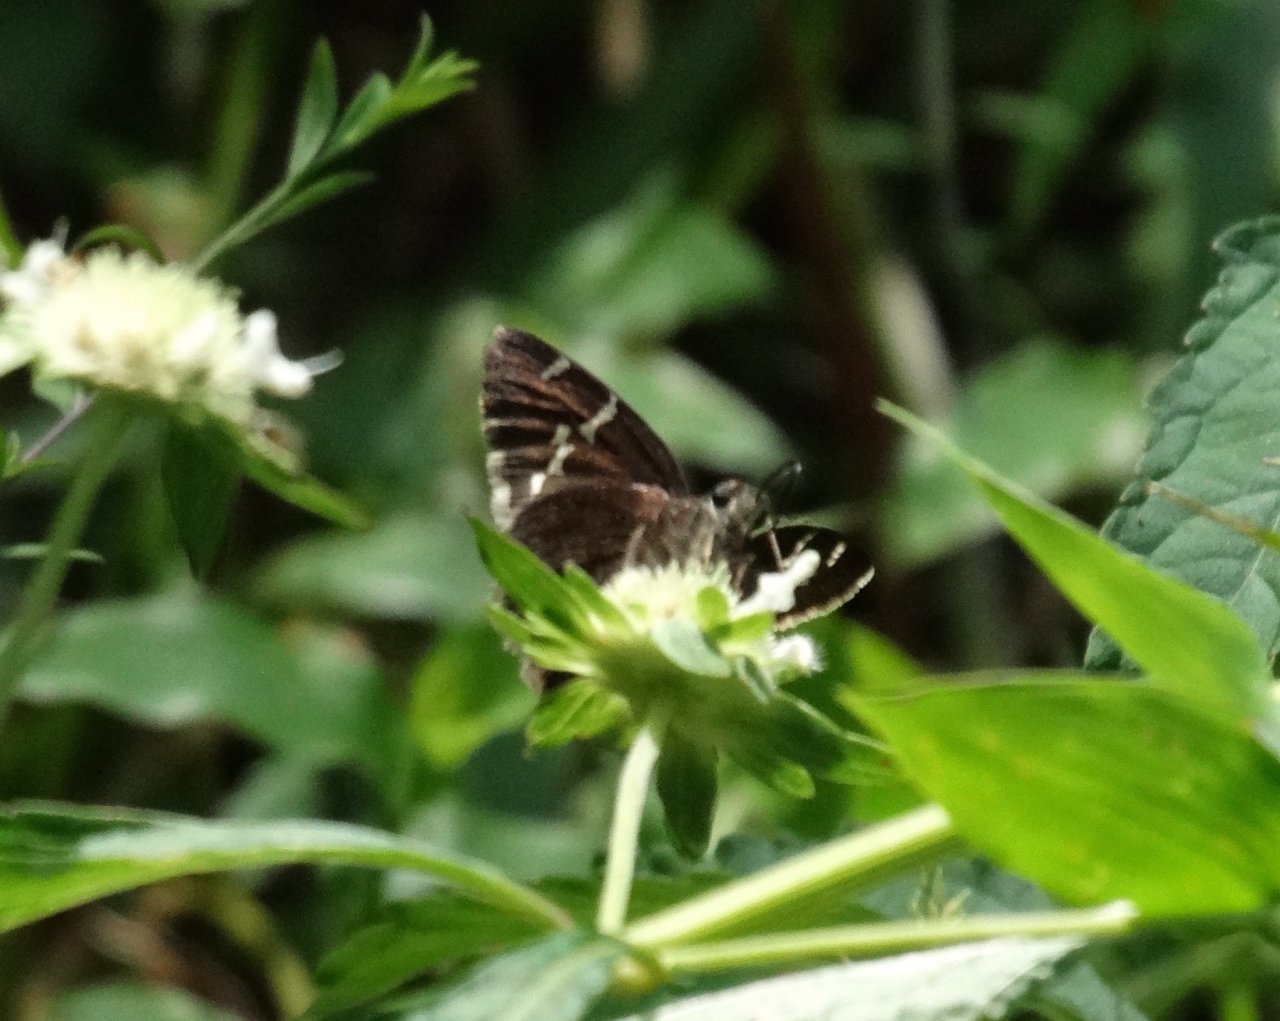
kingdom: Animalia
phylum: Arthropoda
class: Insecta
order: Lepidoptera
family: Hesperiidae
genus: Autochton
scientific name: Autochton
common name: Southern Cloudywing
